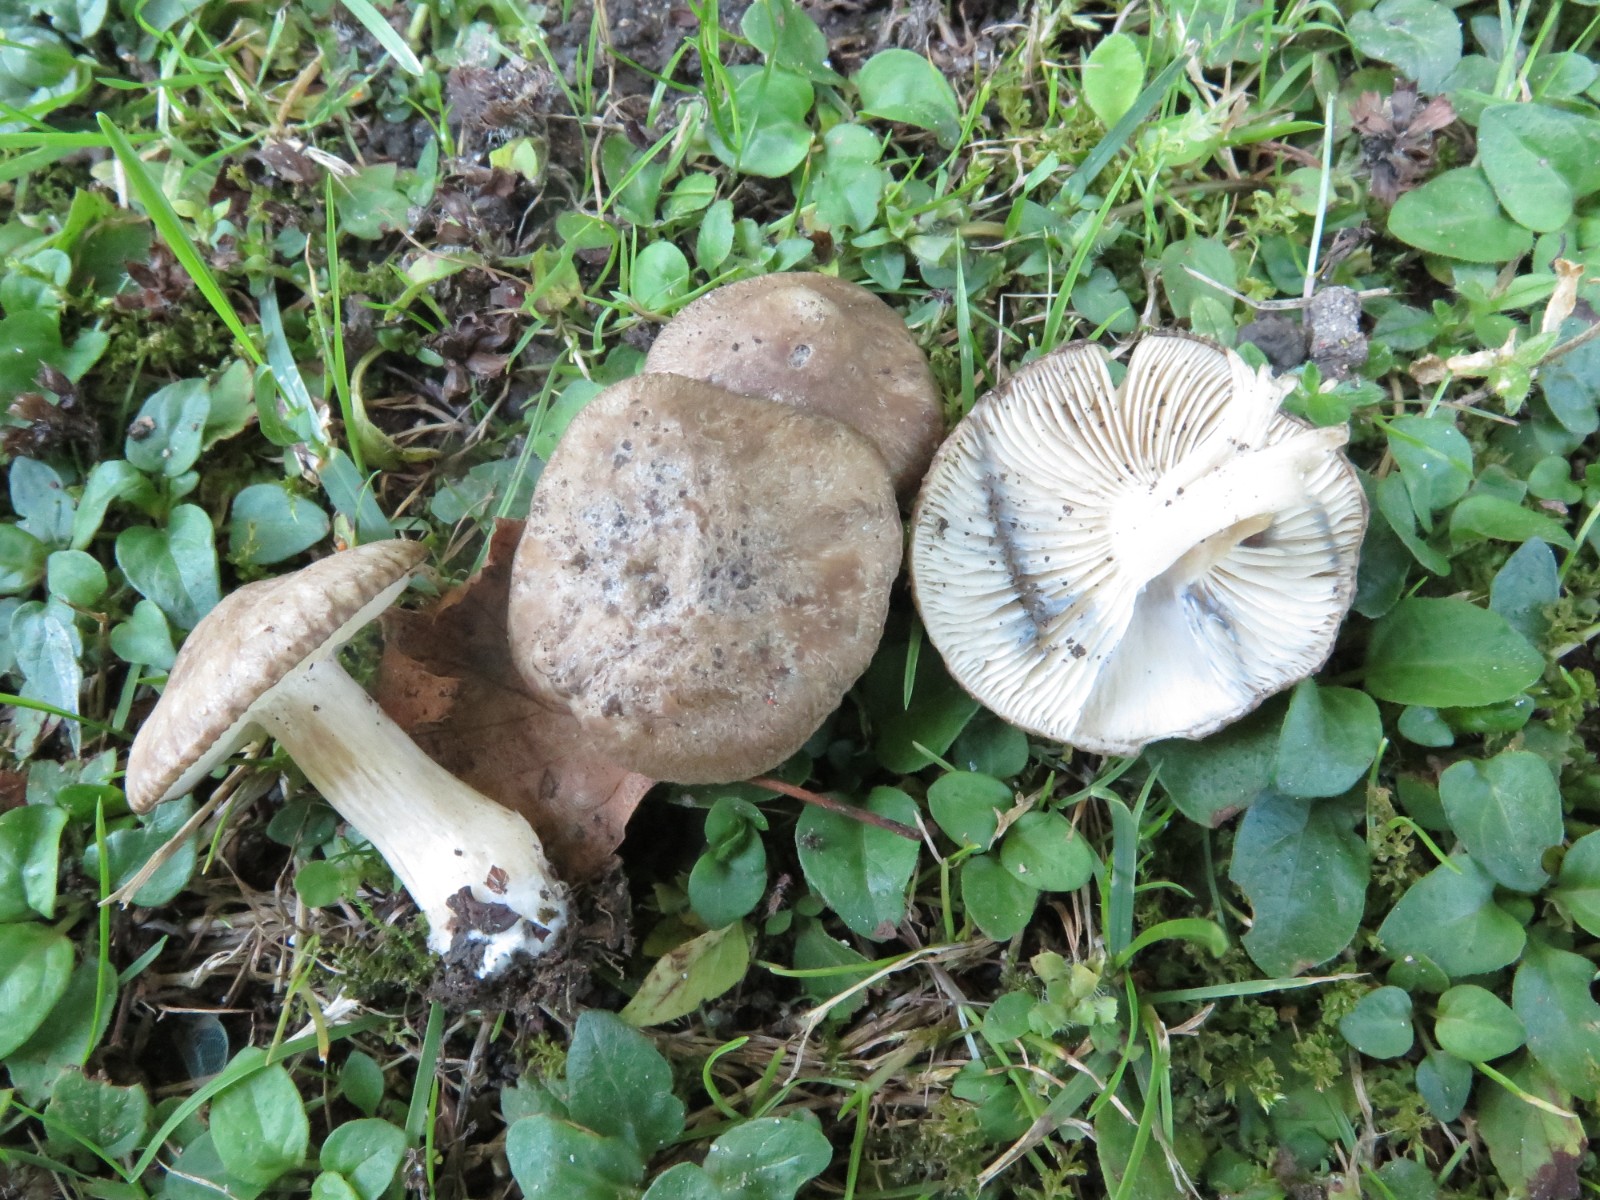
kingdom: Fungi
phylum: Basidiomycota
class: Agaricomycetes
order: Agaricales
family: Lyophyllaceae
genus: Lyophyllum
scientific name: Lyophyllum paelochroum
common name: blånende gråblad
